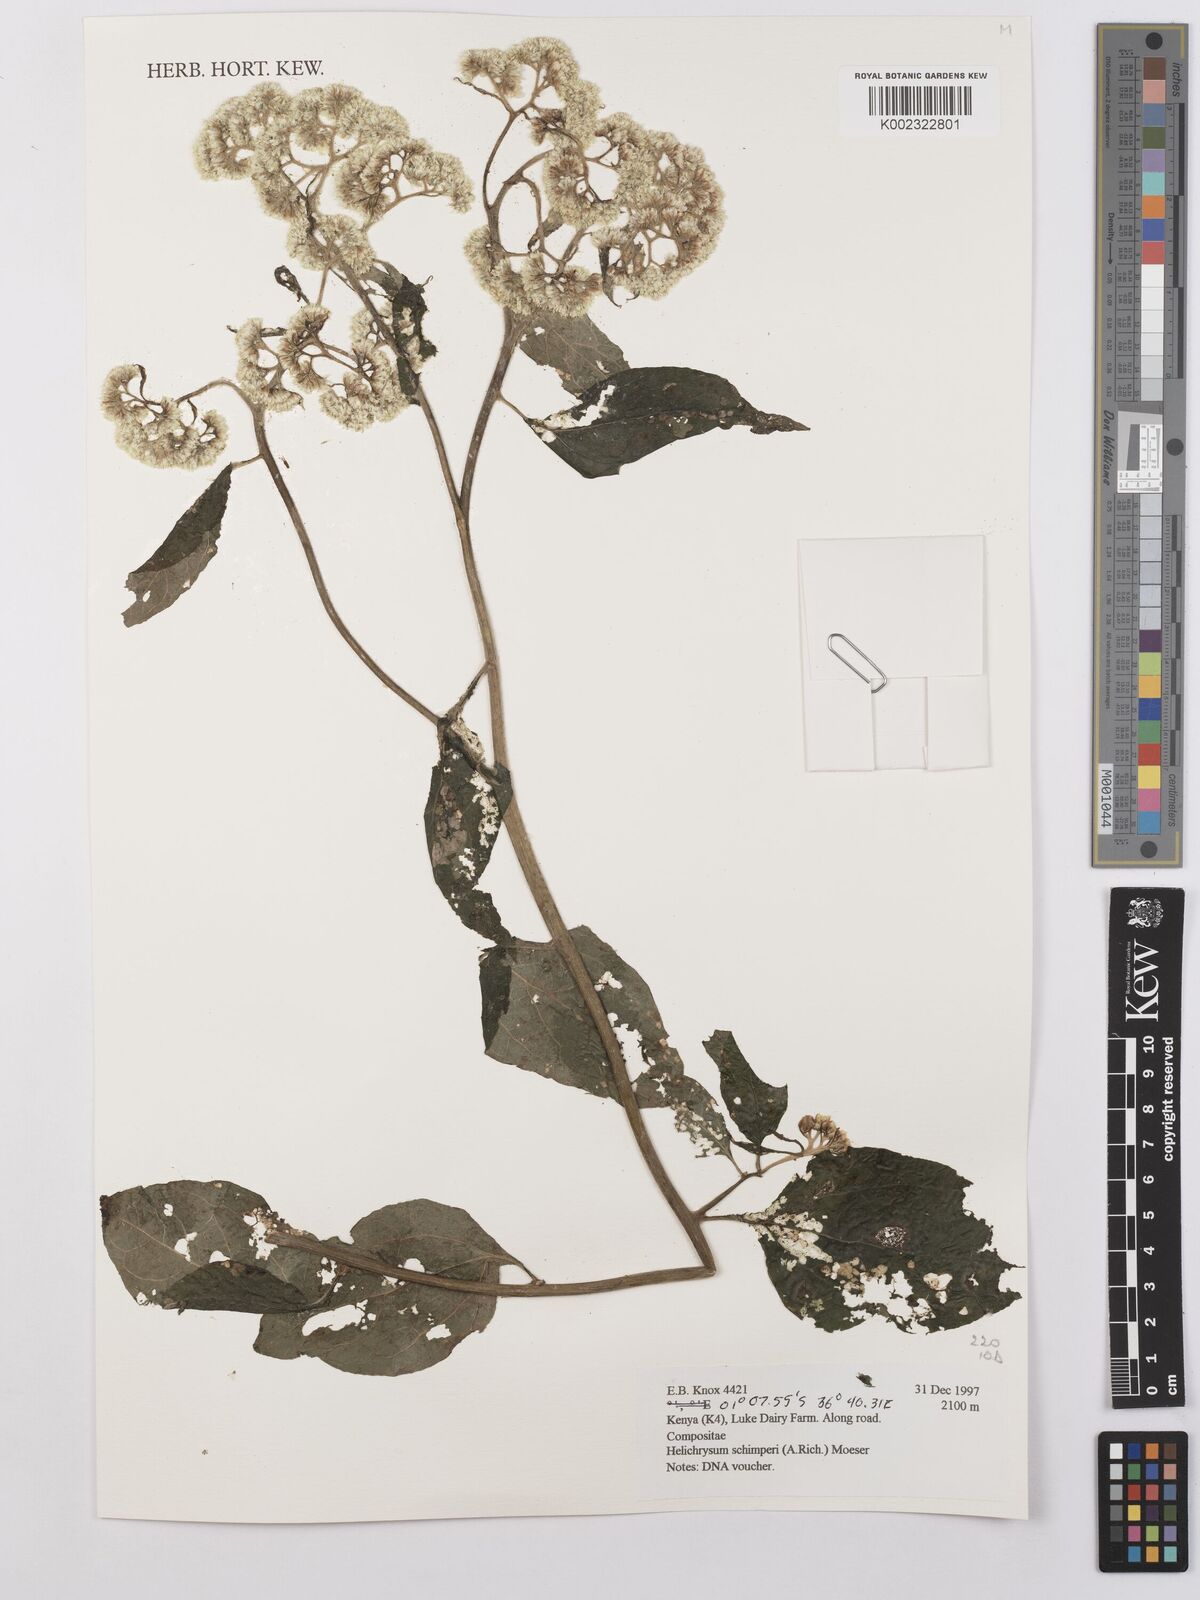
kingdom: Plantae
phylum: Tracheophyta
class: Magnoliopsida
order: Asterales
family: Asteraceae
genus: Helichrysum
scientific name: Helichrysum schimperi
